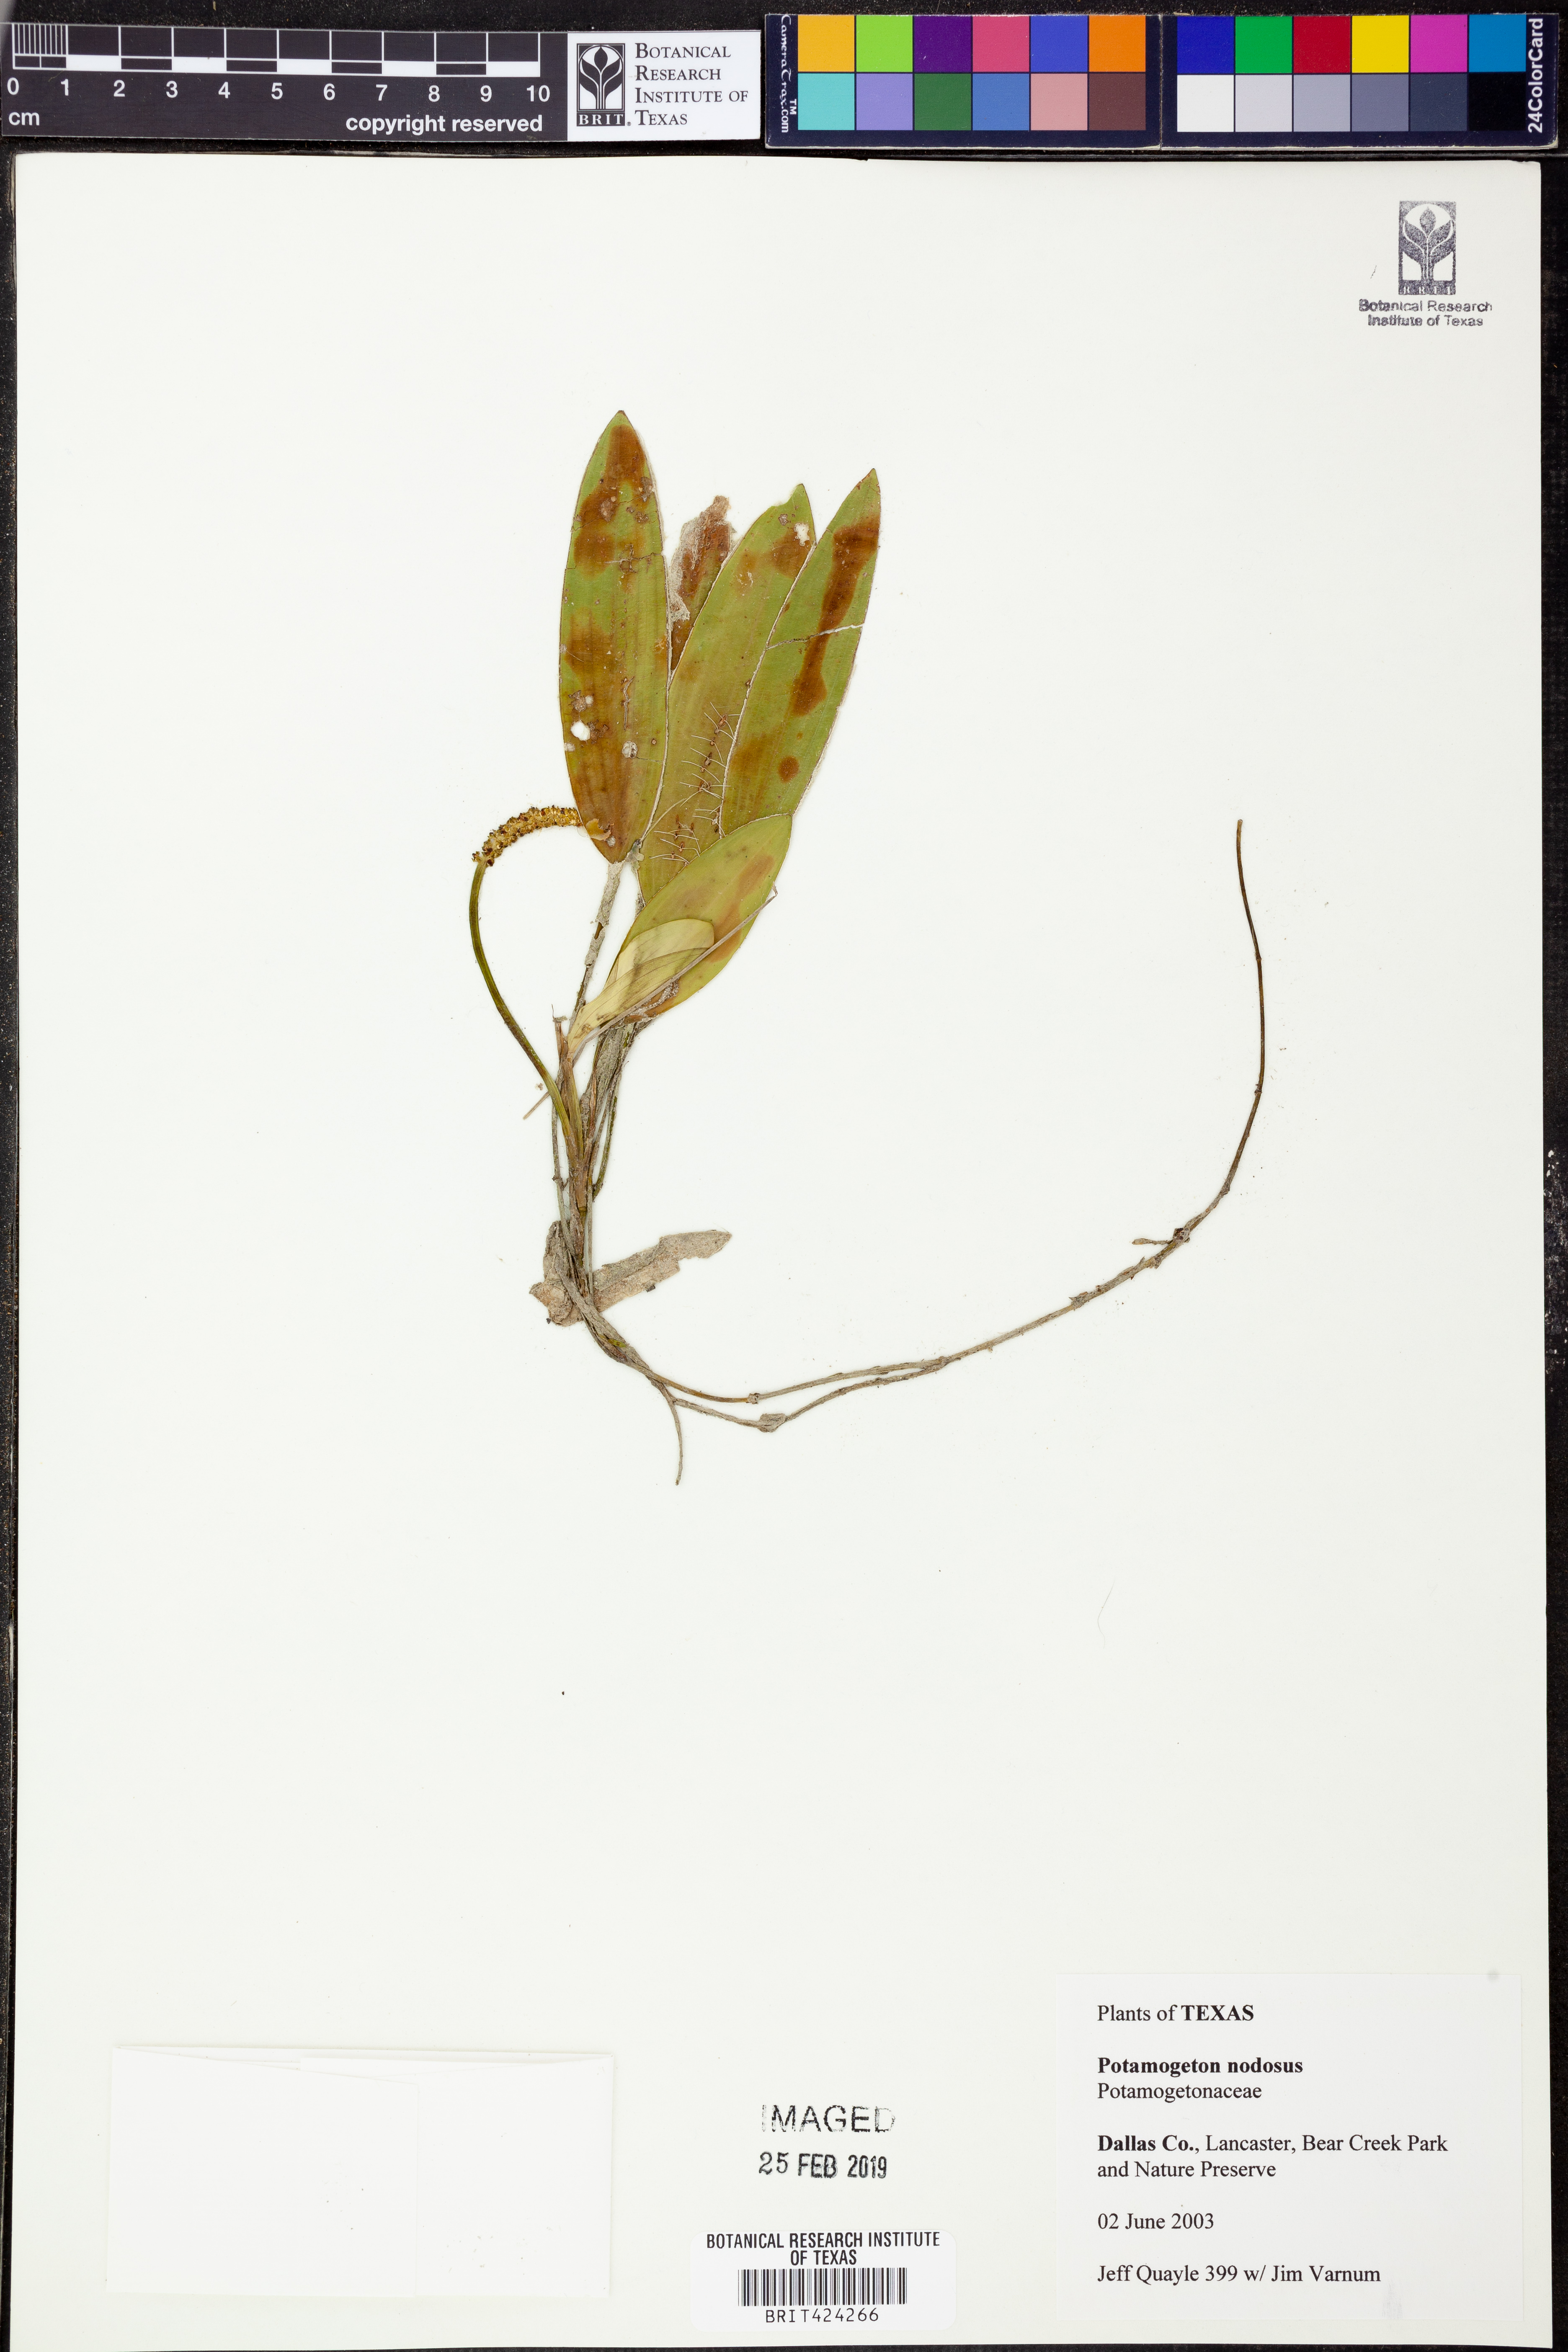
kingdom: Plantae
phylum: Tracheophyta
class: Liliopsida
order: Alismatales
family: Potamogetonaceae
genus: Potamogeton
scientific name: Potamogeton nodosus
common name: Loddon pondweed
